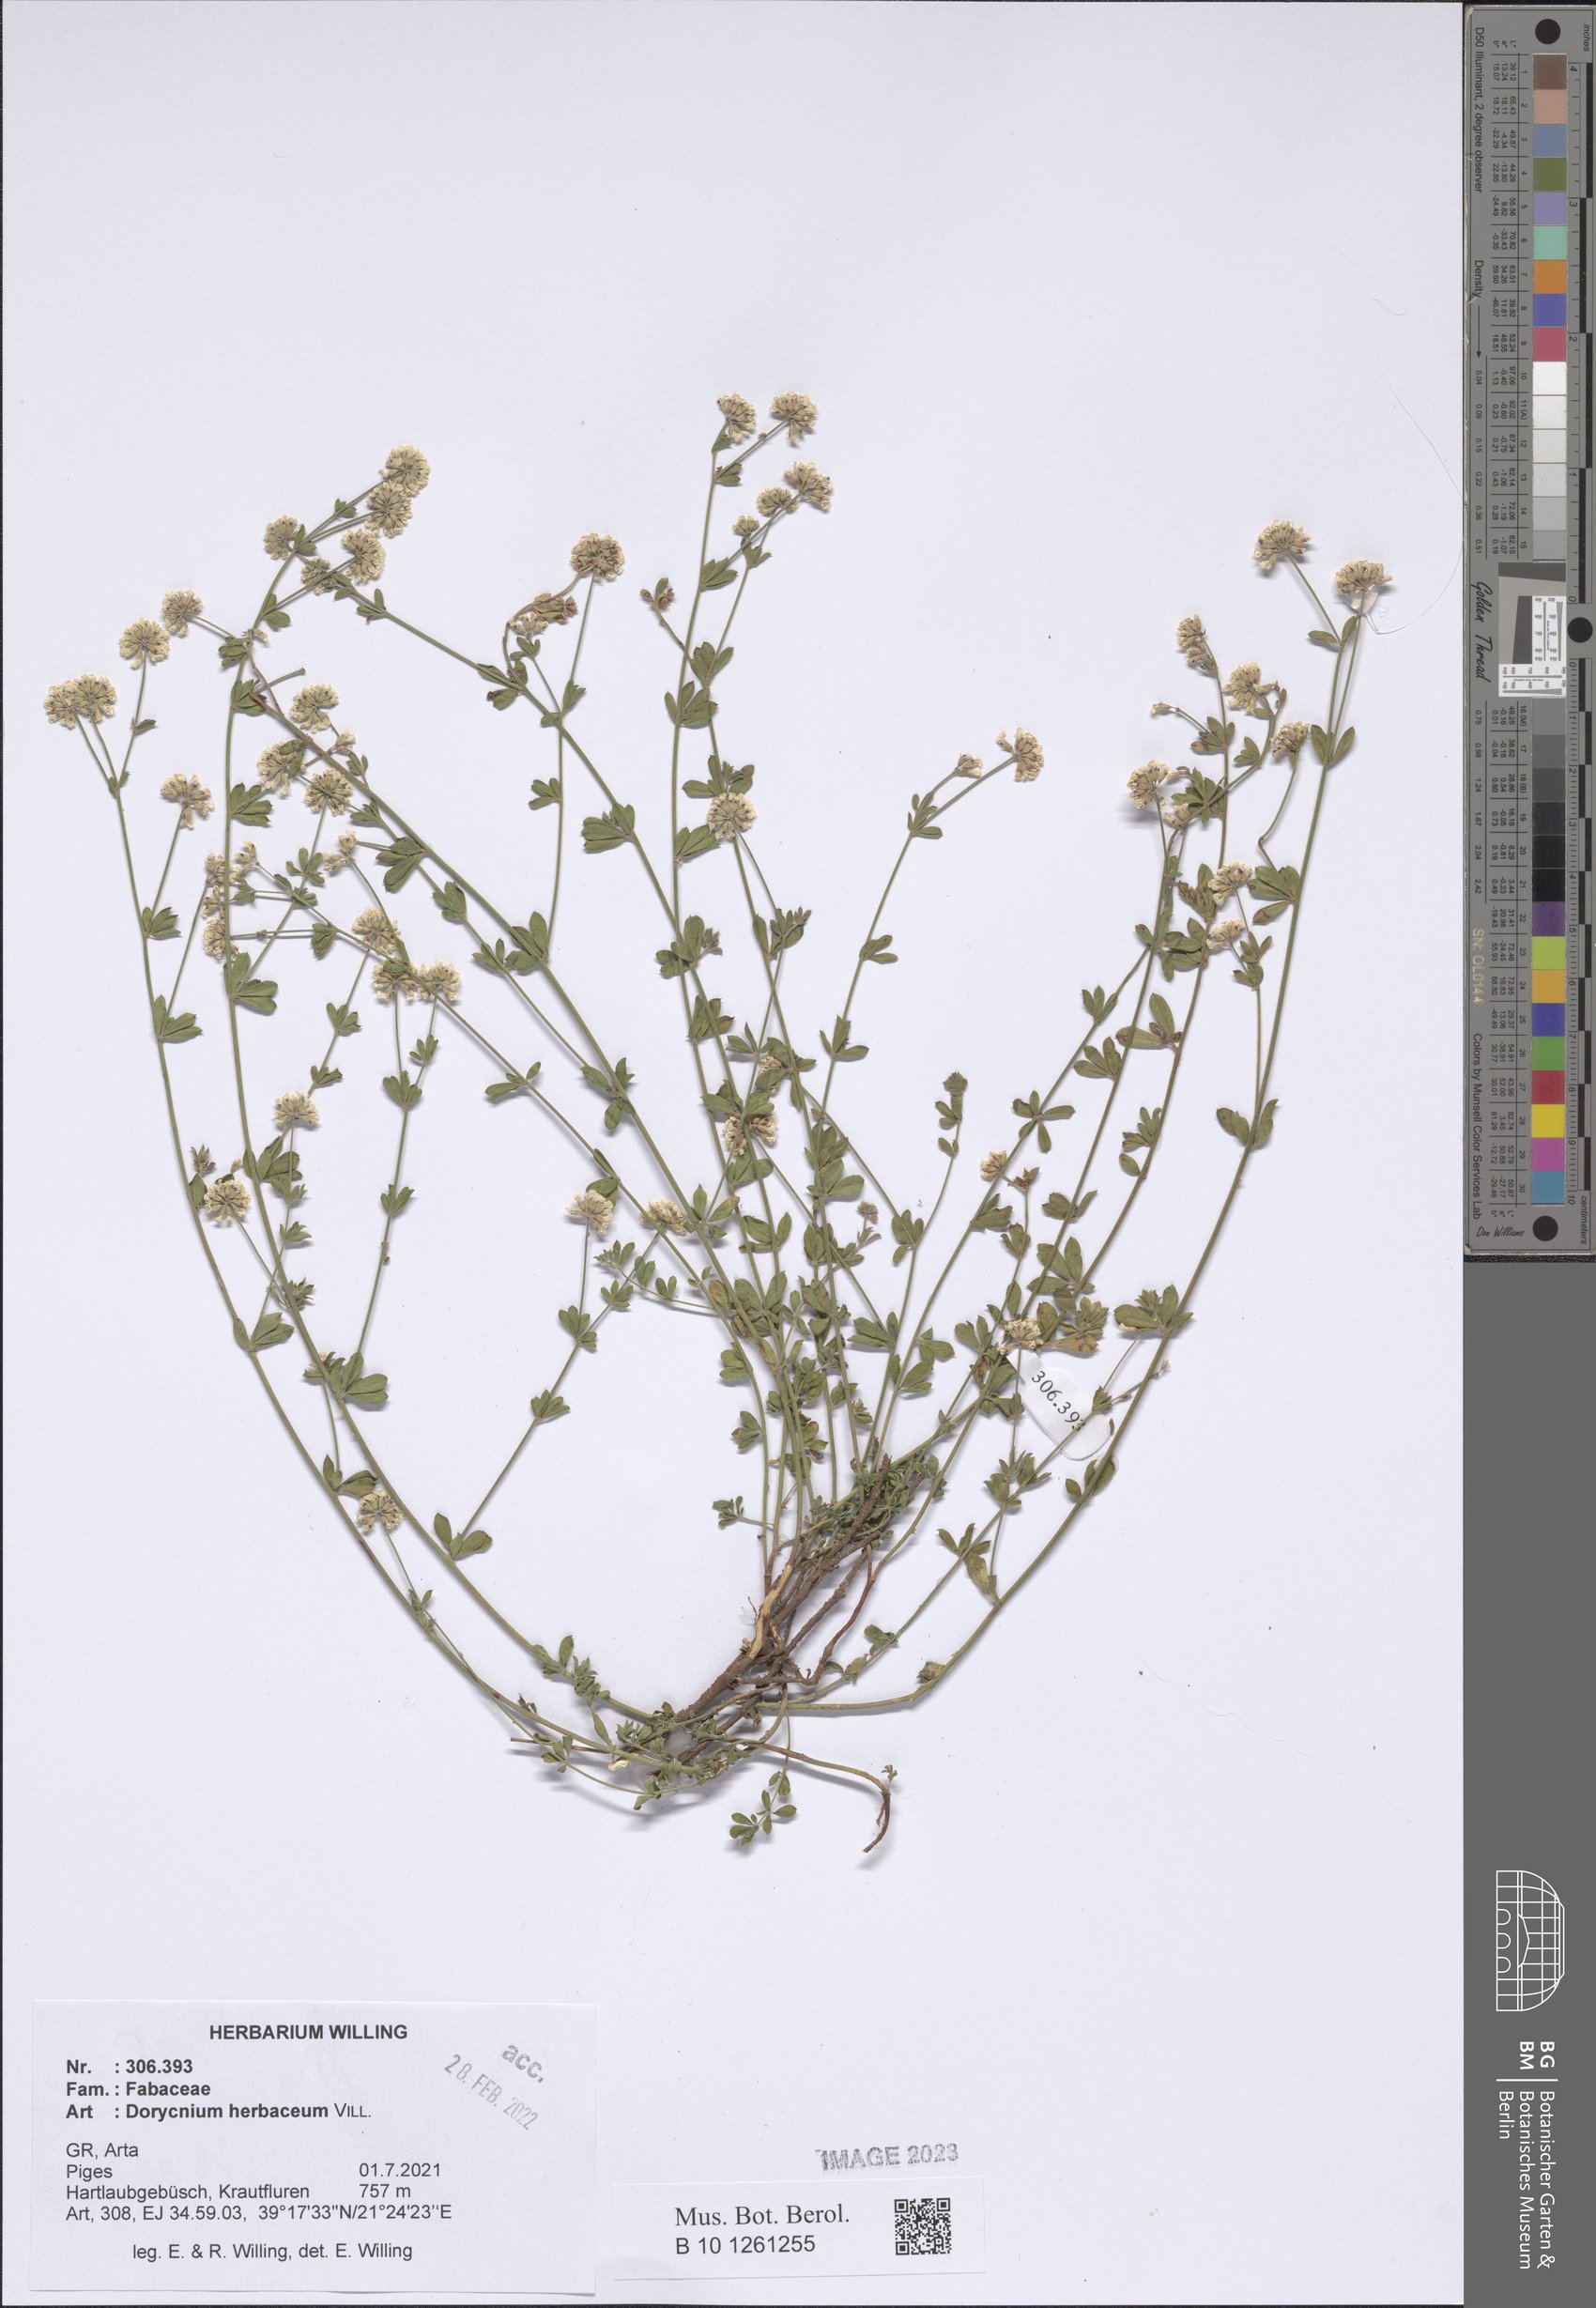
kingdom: Plantae
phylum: Tracheophyta
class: Magnoliopsida
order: Fabales
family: Fabaceae
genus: Lotus
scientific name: Lotus herbaceus
